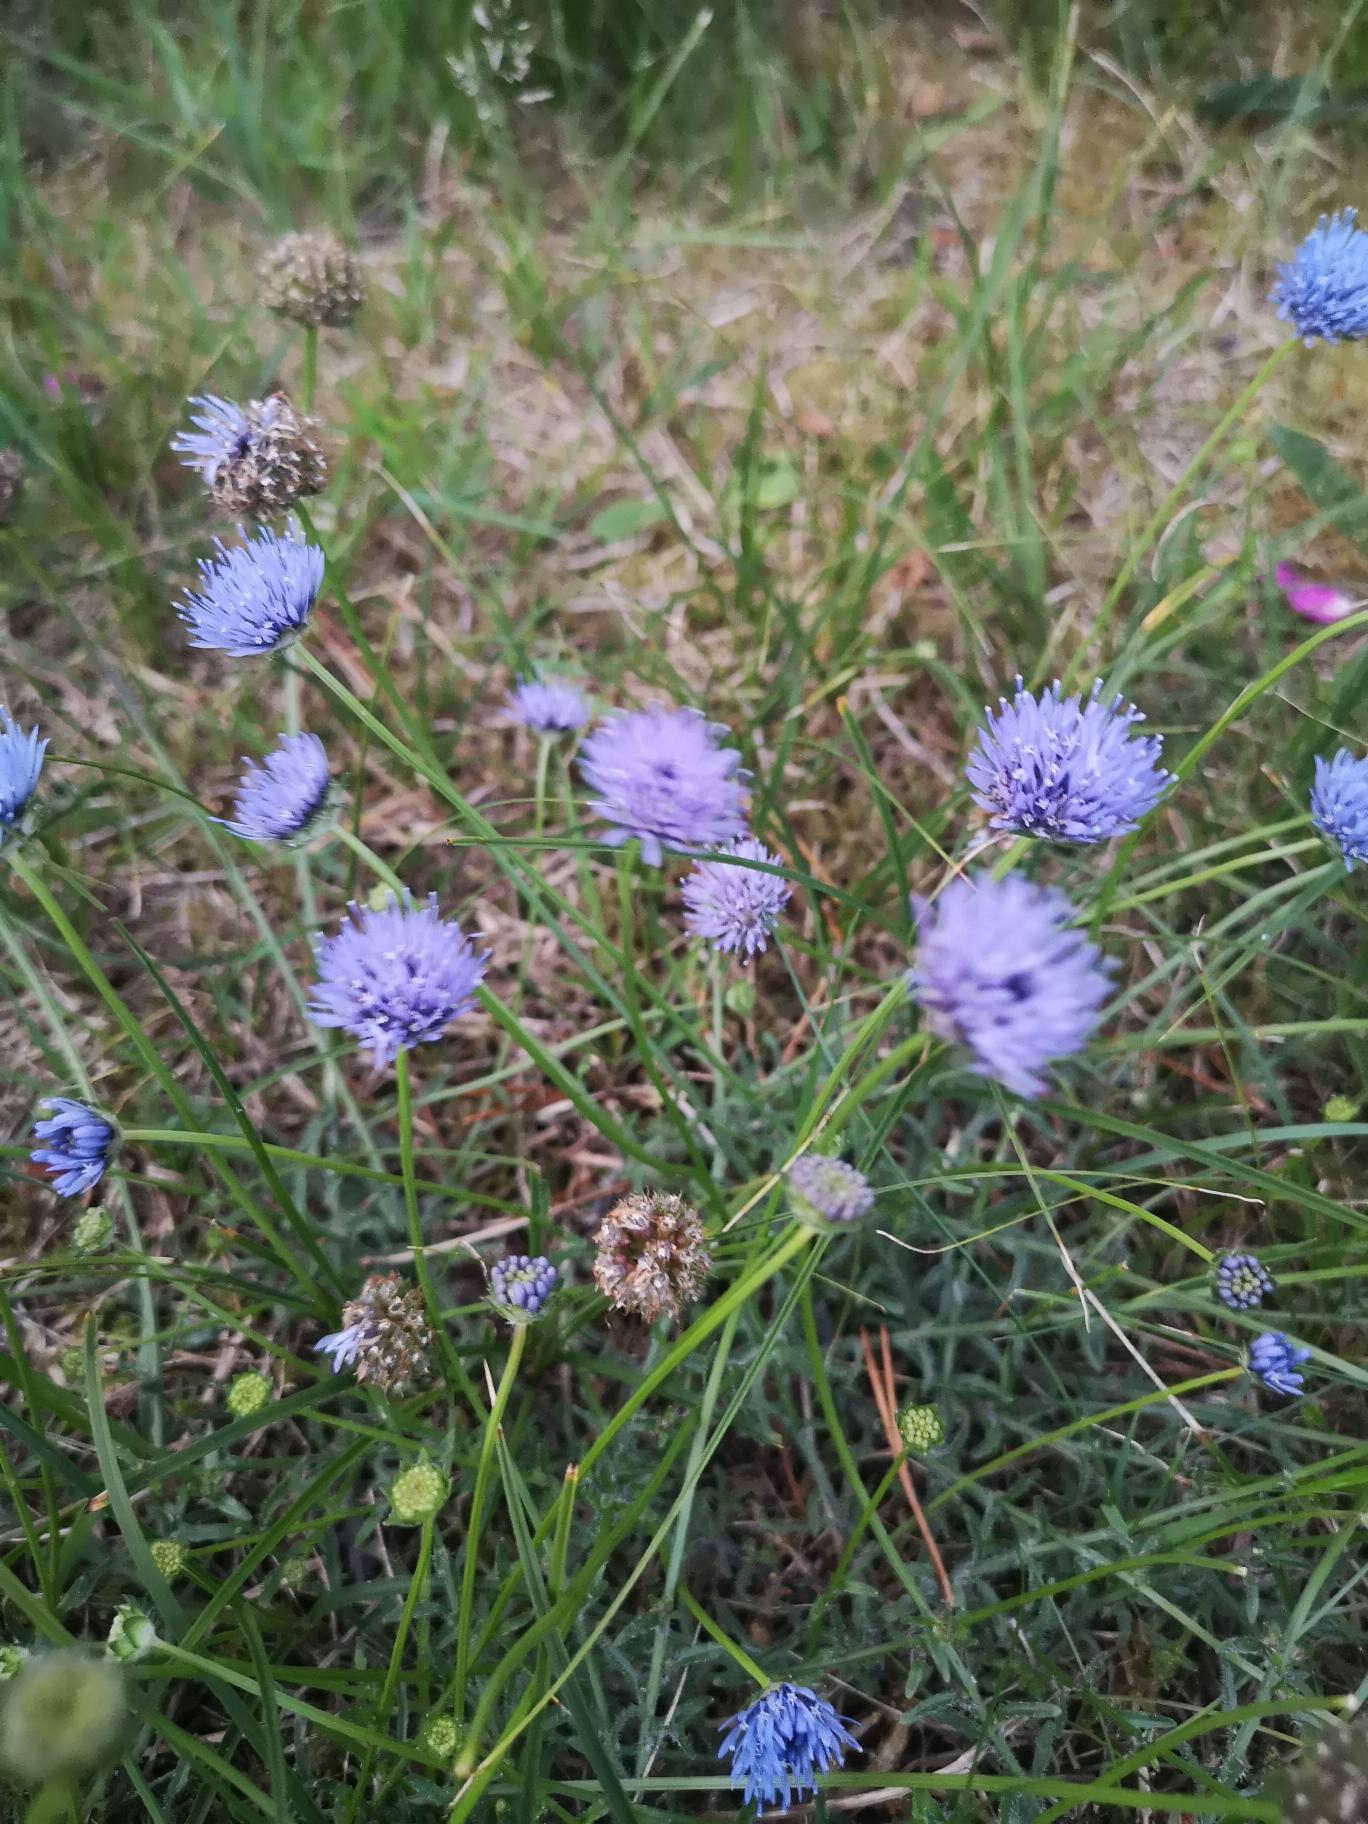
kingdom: Plantae
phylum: Tracheophyta
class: Magnoliopsida
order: Asterales
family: Campanulaceae
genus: Jasione
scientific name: Jasione montana
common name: Blåmunke
